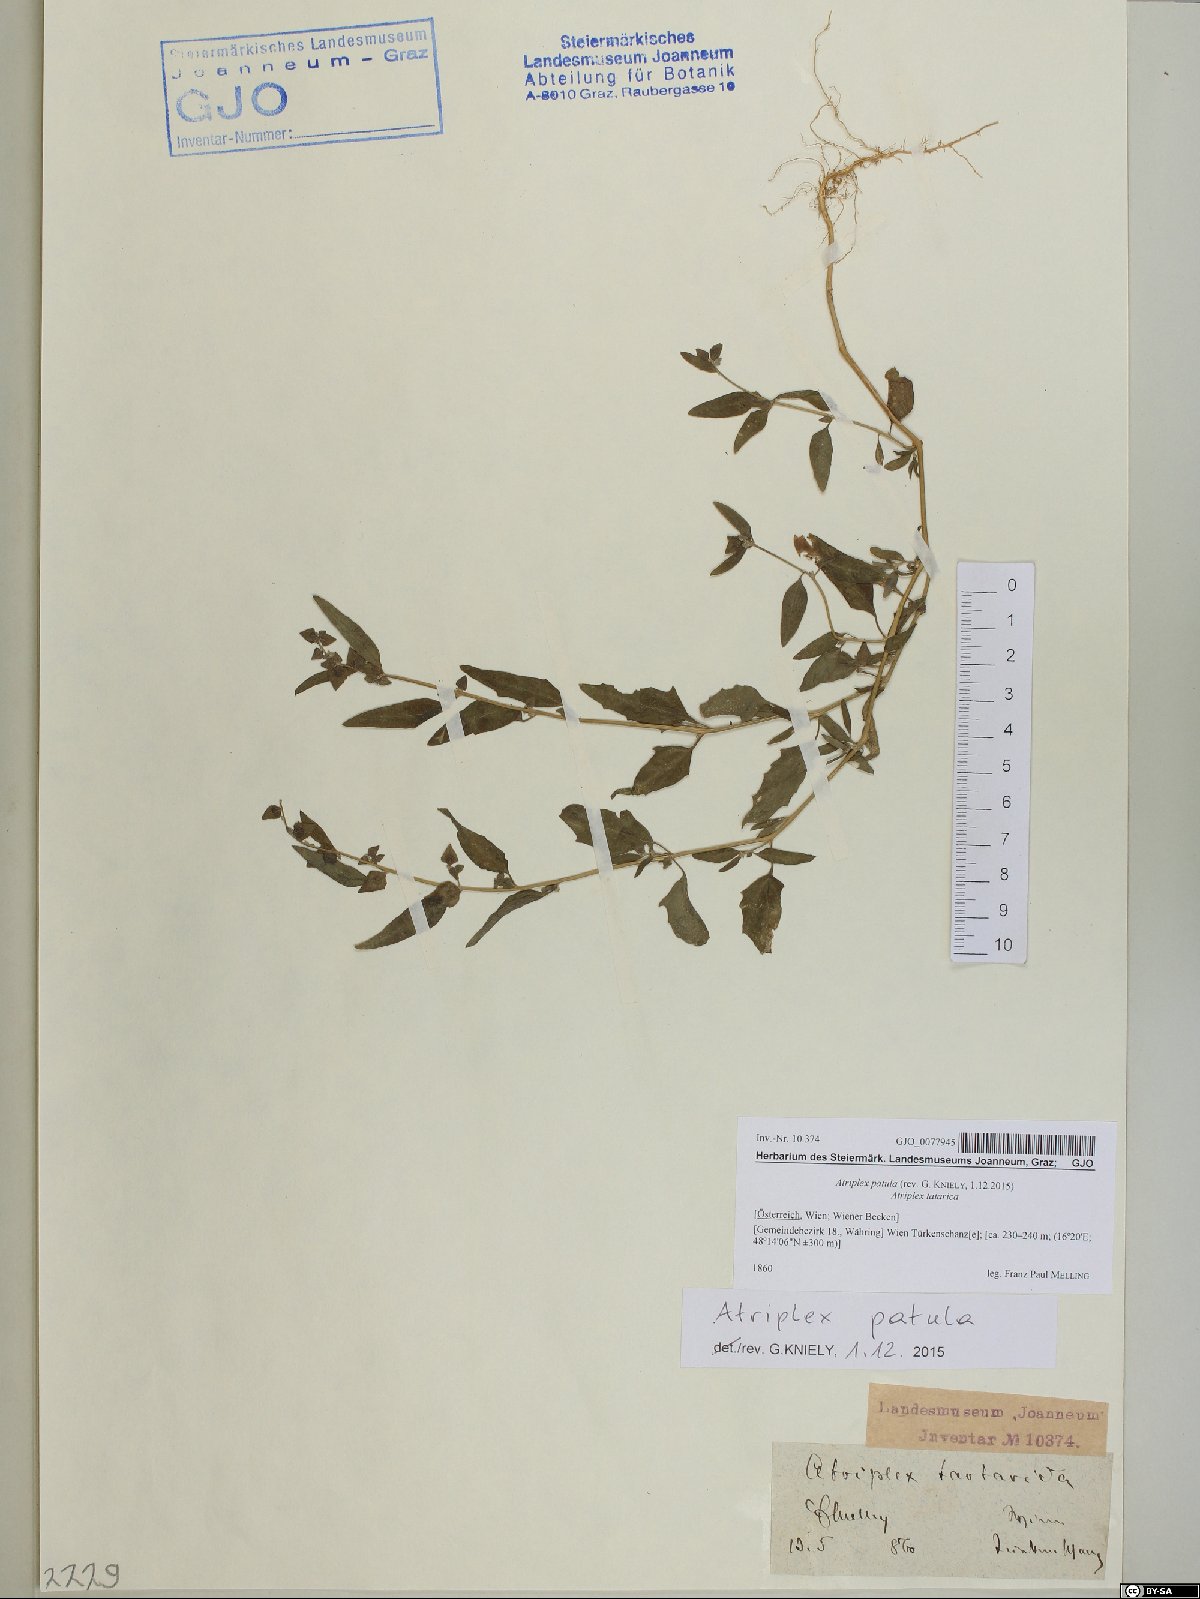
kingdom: Plantae
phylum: Tracheophyta
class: Magnoliopsida
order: Caryophyllales
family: Amaranthaceae
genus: Atriplex
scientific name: Atriplex patula
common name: Common orache
